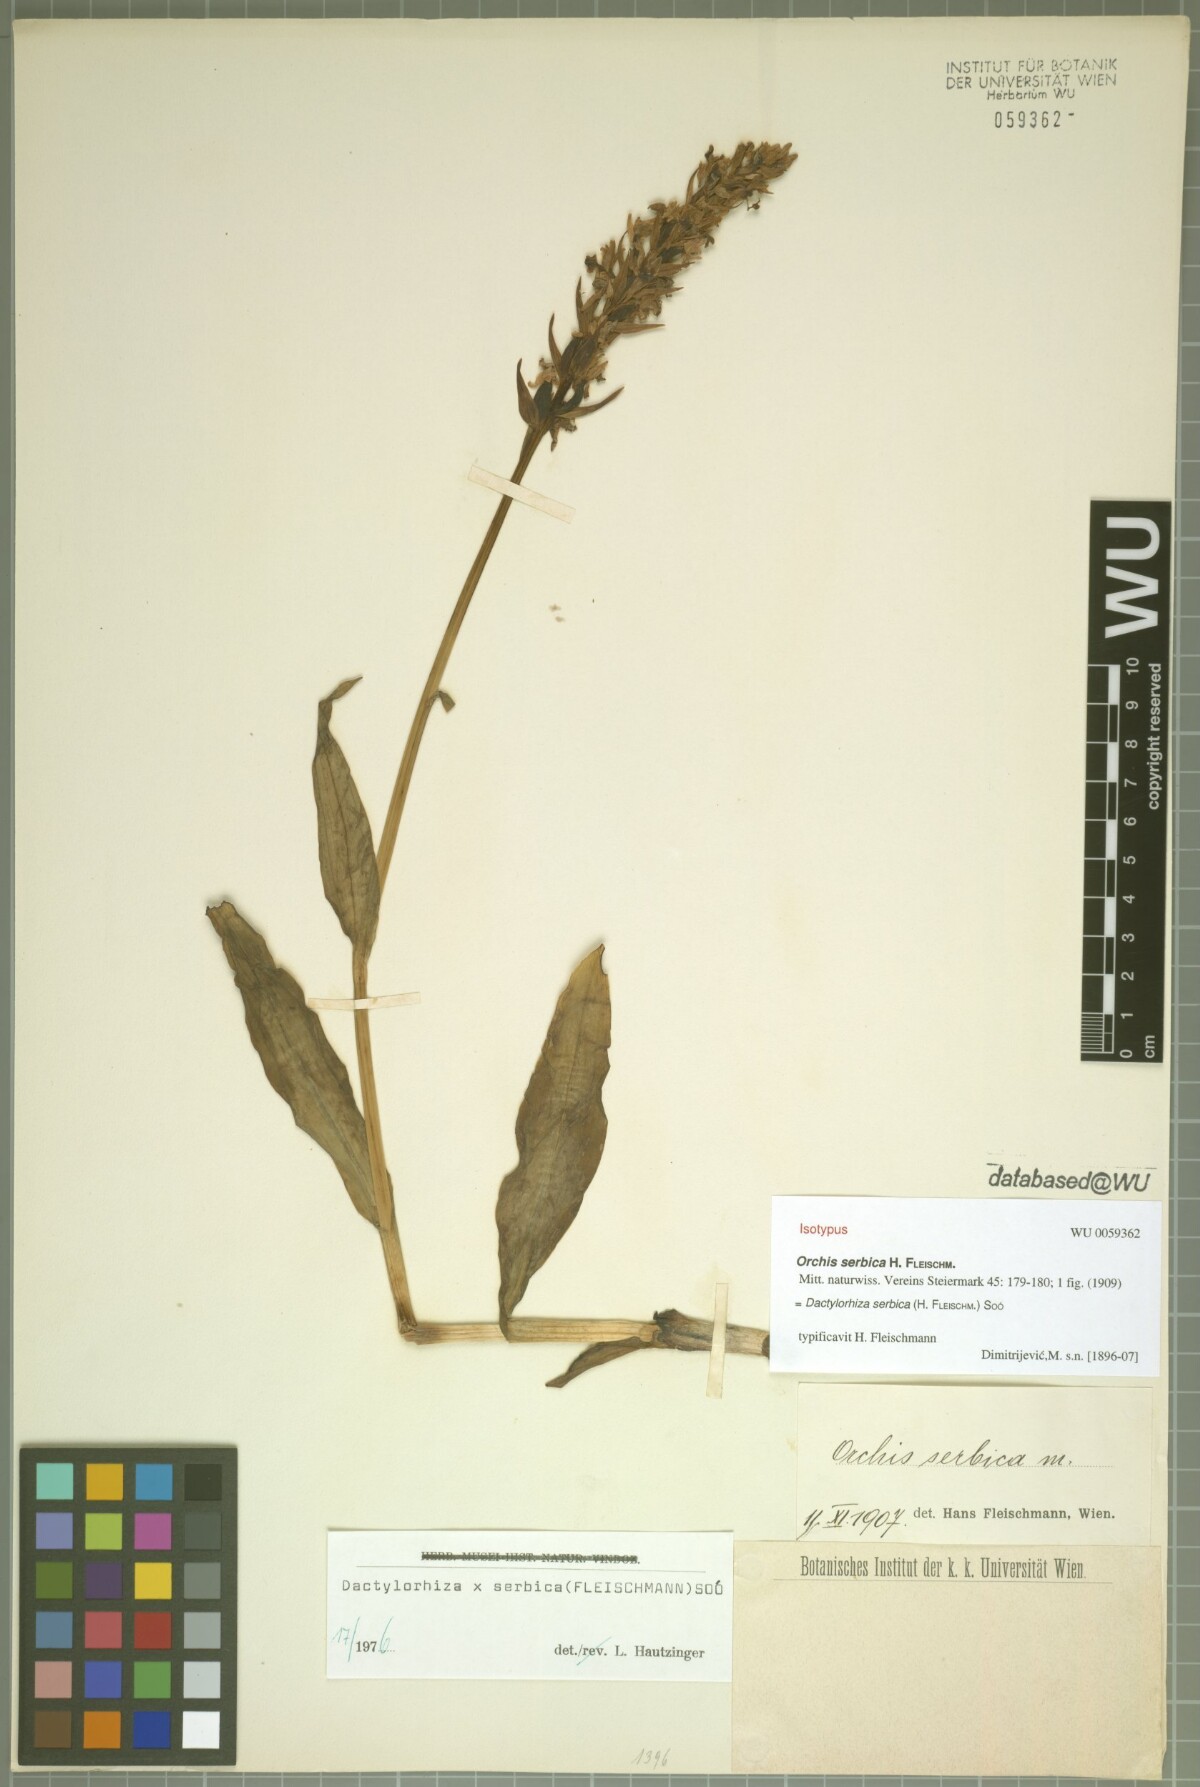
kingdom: Plantae
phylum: Tracheophyta
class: Liliopsida
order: Asparagales
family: Orchidaceae
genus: Dactylorhiza
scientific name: Dactylorhiza serbica
